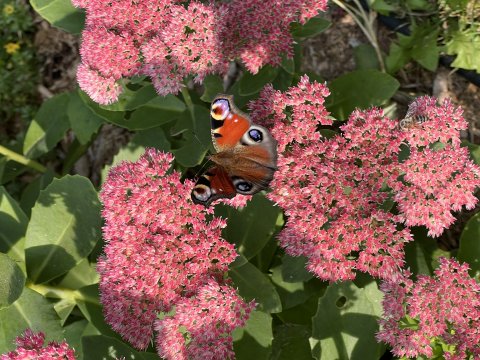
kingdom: Animalia
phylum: Arthropoda
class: Insecta
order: Lepidoptera
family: Nymphalidae
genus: Aglais
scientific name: Aglais io
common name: European Peacock
